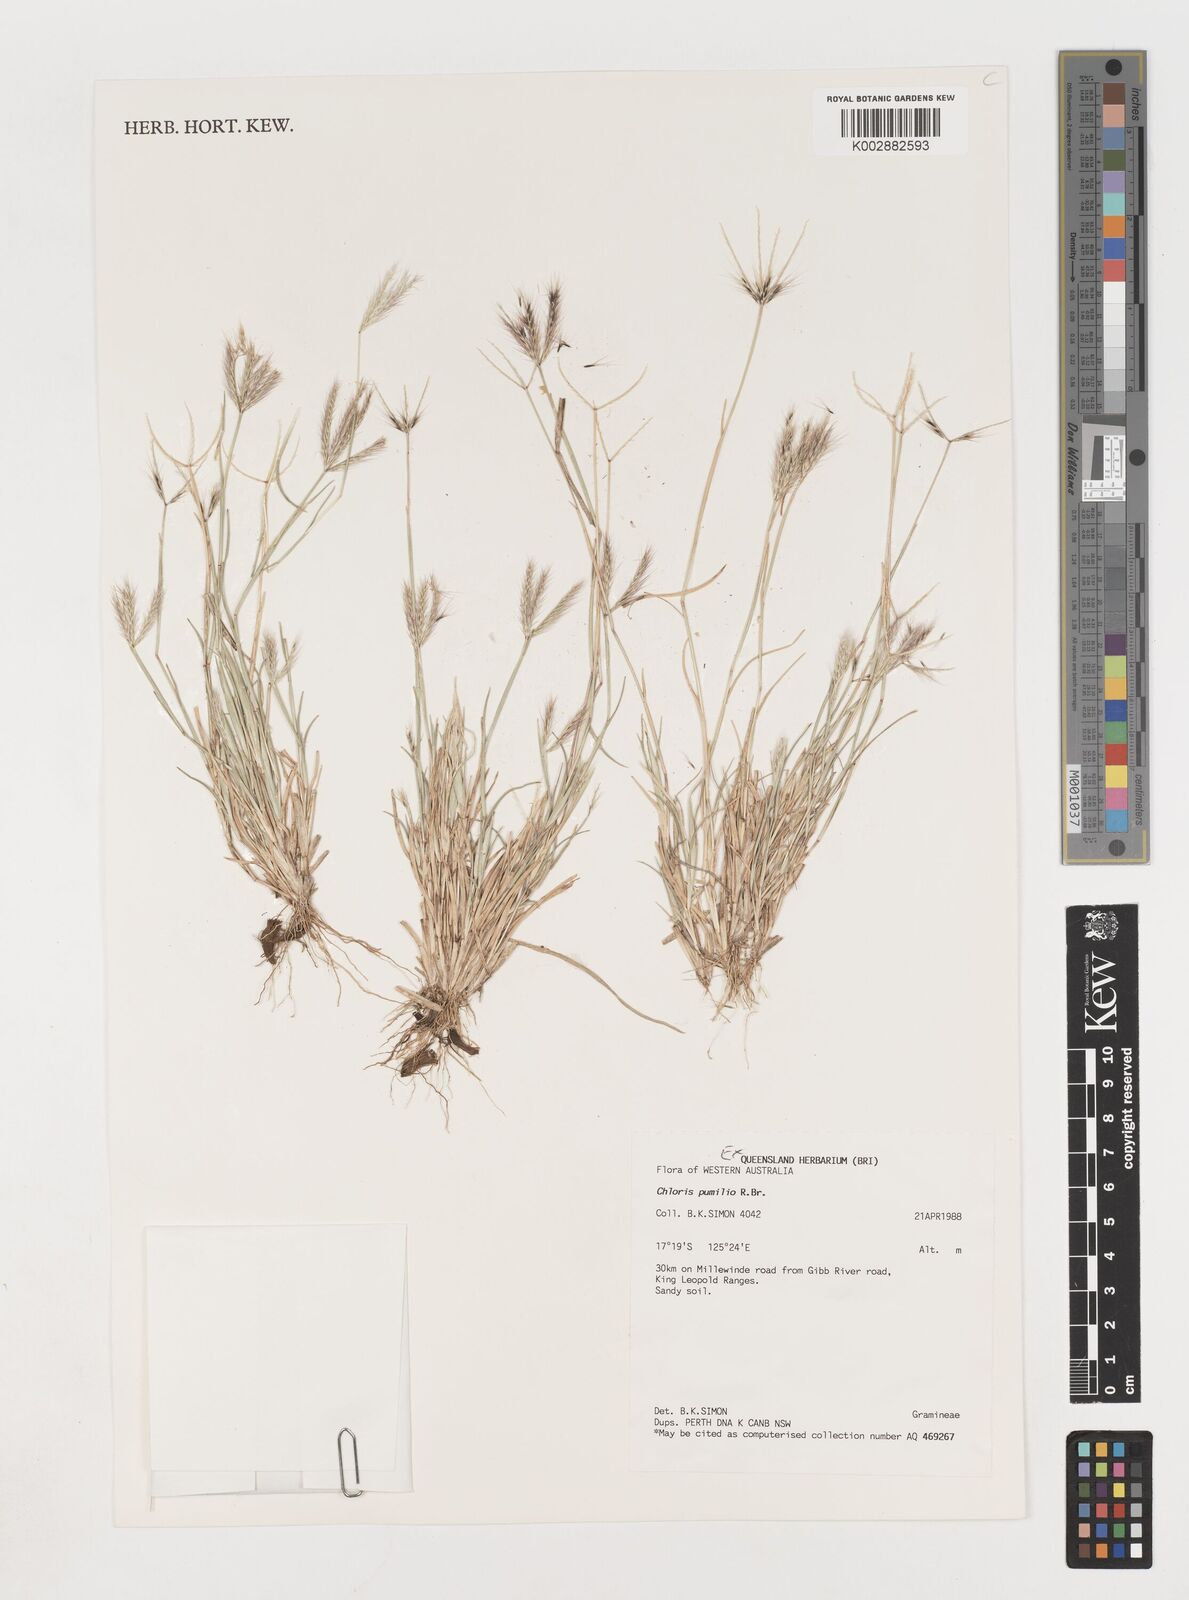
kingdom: Plantae
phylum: Tracheophyta
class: Liliopsida
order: Poales
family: Poaceae
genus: Chloris
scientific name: Chloris pumilio
